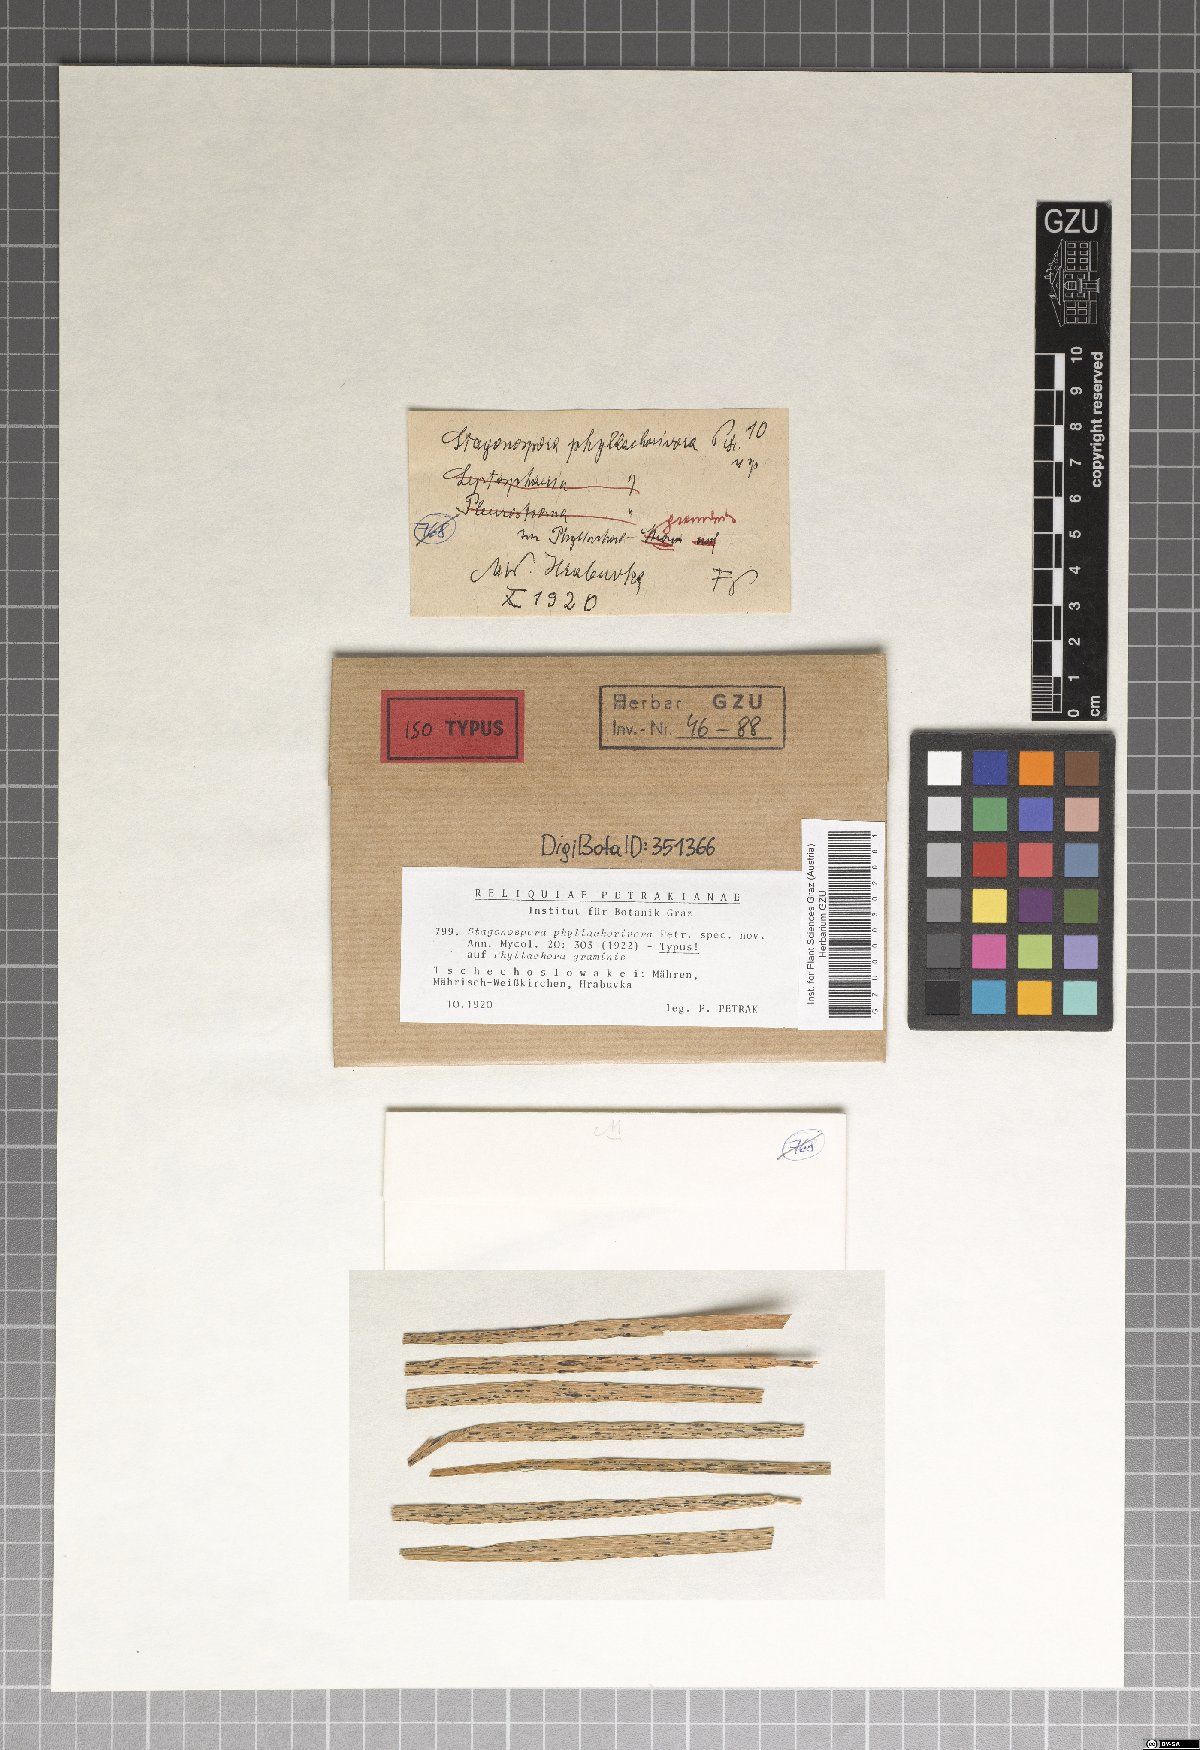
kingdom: Fungi
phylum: Ascomycota
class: Dothideomycetes
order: Pleosporales
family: Phaeosphaeriaceae
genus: Stagonospora
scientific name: Stagonospora phyllachorivora
